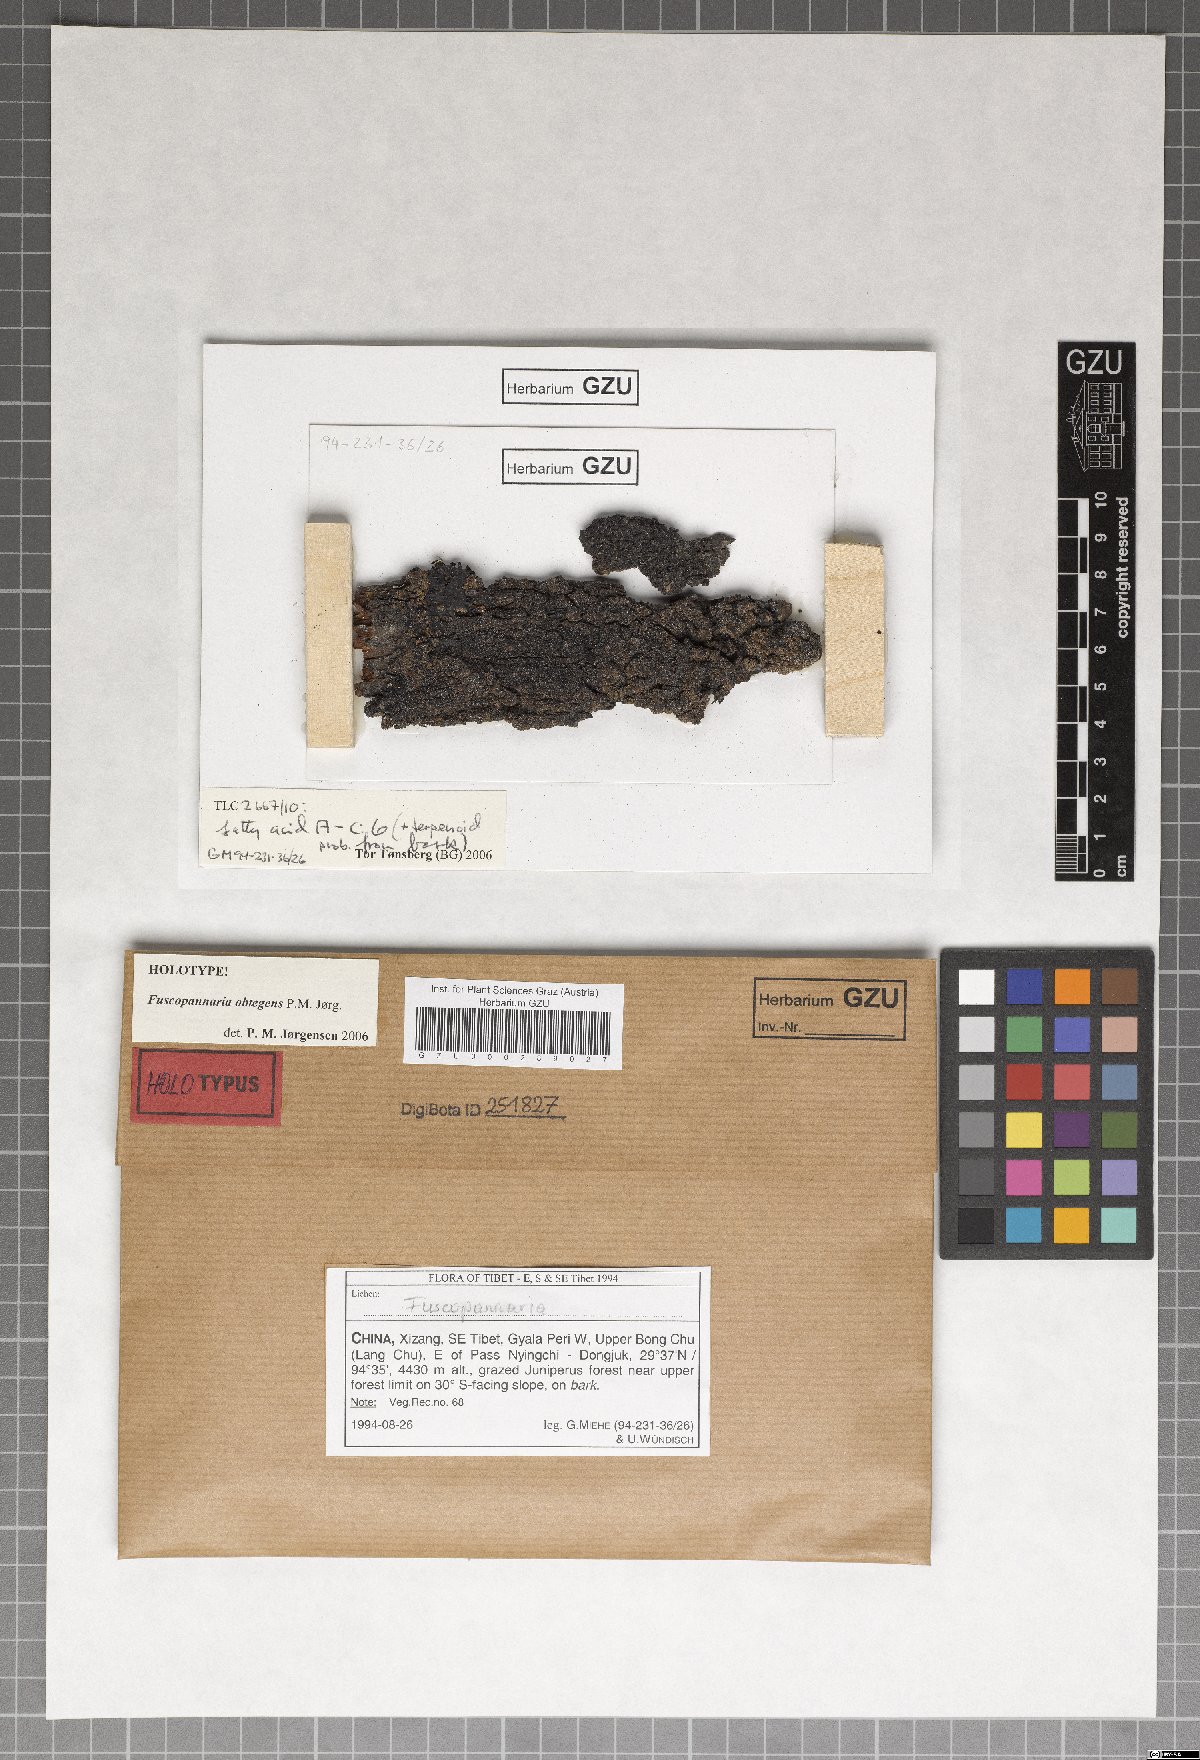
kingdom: Fungi
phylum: Ascomycota
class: Lecanoromycetes
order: Peltigerales
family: Pannariaceae
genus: Fuscopannaria
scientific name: Fuscopannaria obtegens
